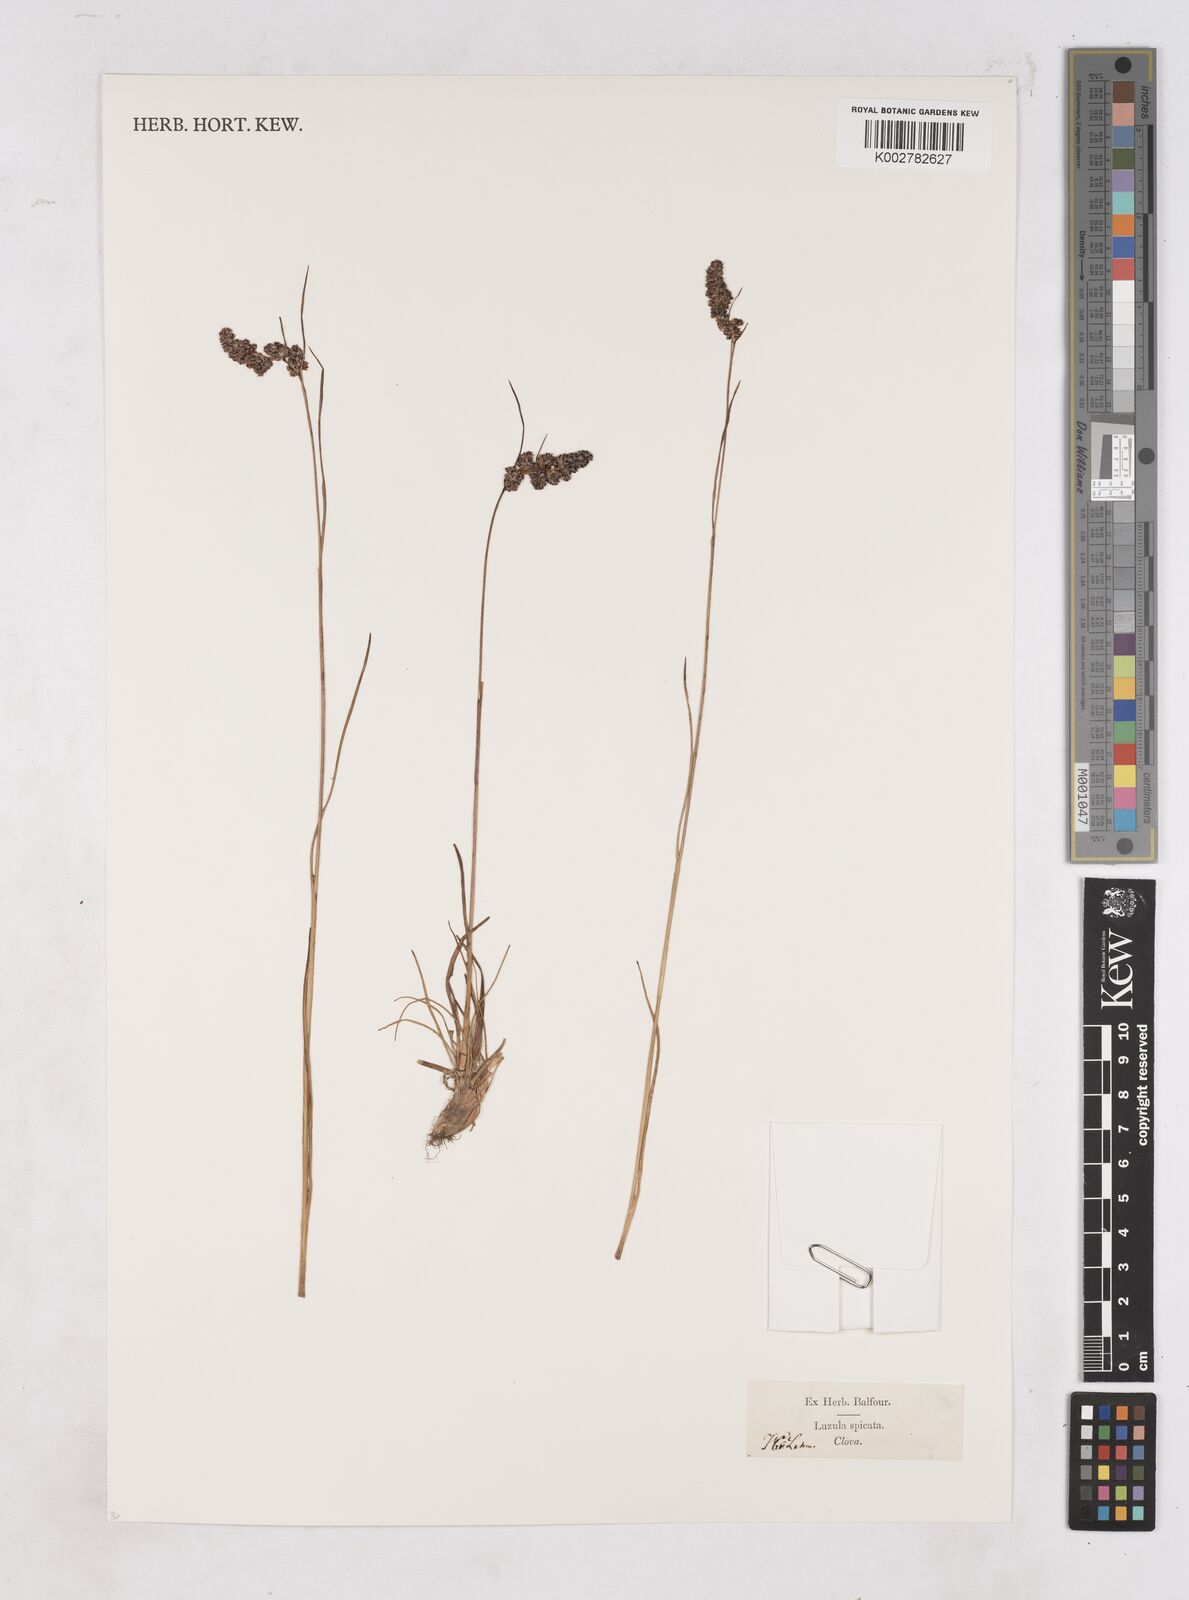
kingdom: Plantae
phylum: Tracheophyta
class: Liliopsida
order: Poales
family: Juncaceae
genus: Luzula
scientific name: Luzula spicata
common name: Spiked wood-rush
